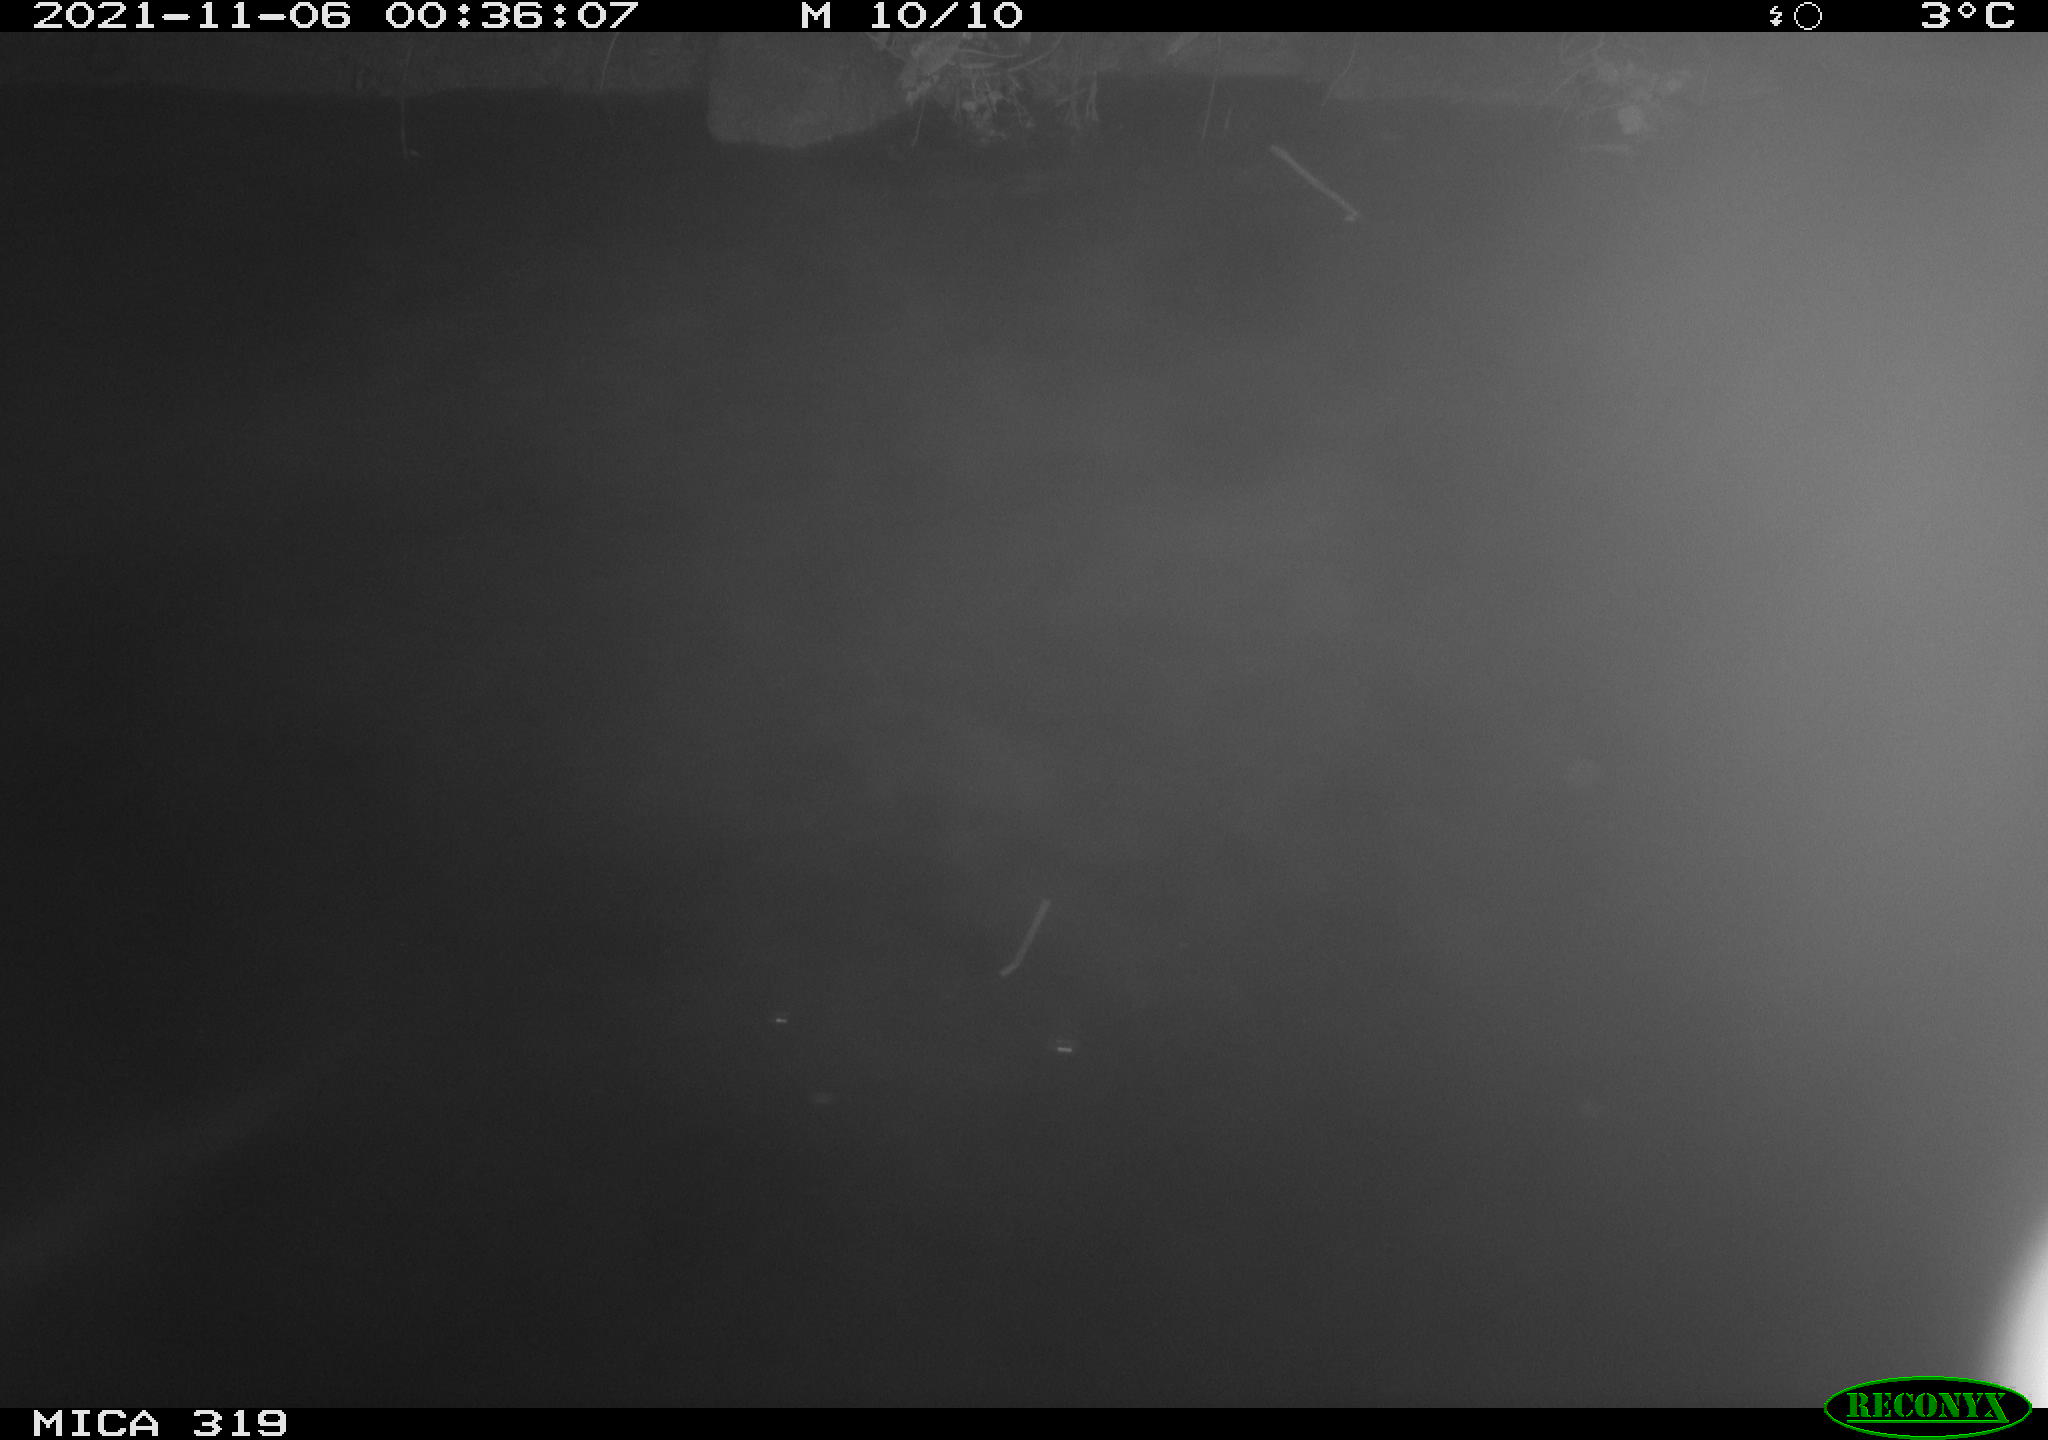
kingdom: Animalia
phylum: Chordata
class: Aves
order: Anseriformes
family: Anatidae
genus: Anas
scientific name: Anas platyrhynchos
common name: Mallard
